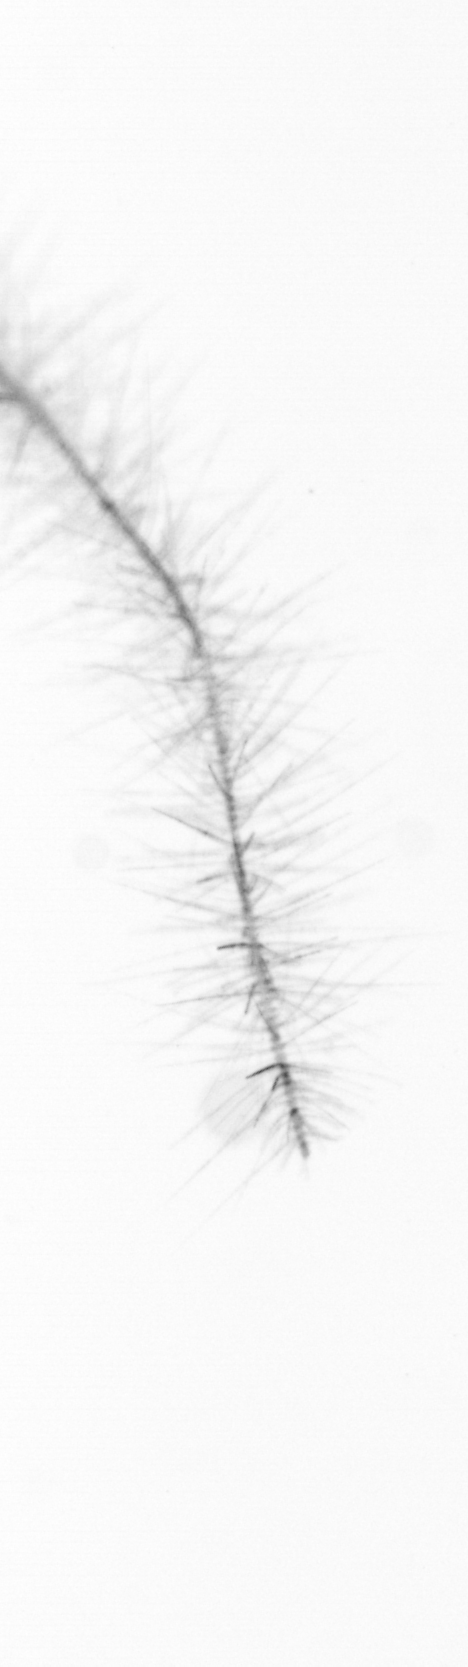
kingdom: Chromista
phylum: Ochrophyta
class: Bacillariophyceae
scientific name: Bacillariophyceae
